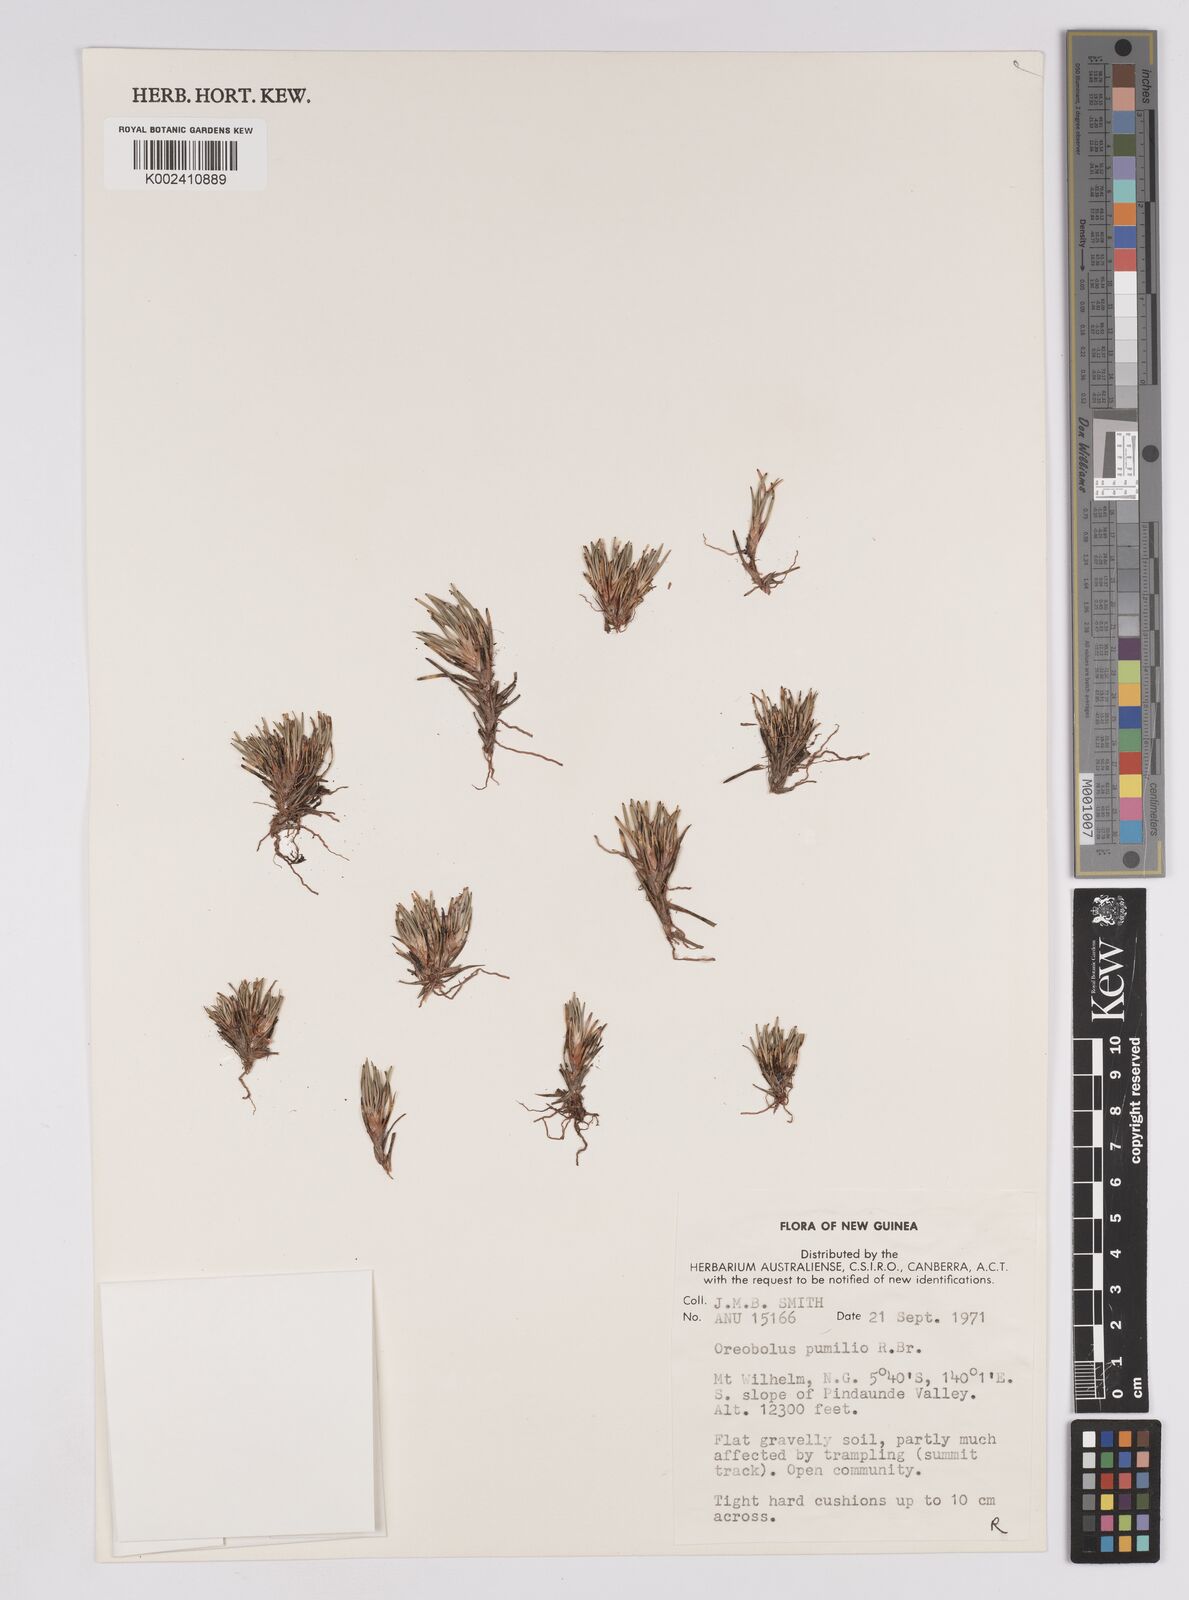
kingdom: Plantae
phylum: Tracheophyta
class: Liliopsida
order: Poales
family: Cyperaceae
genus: Oreobolus
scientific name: Oreobolus pumilio
